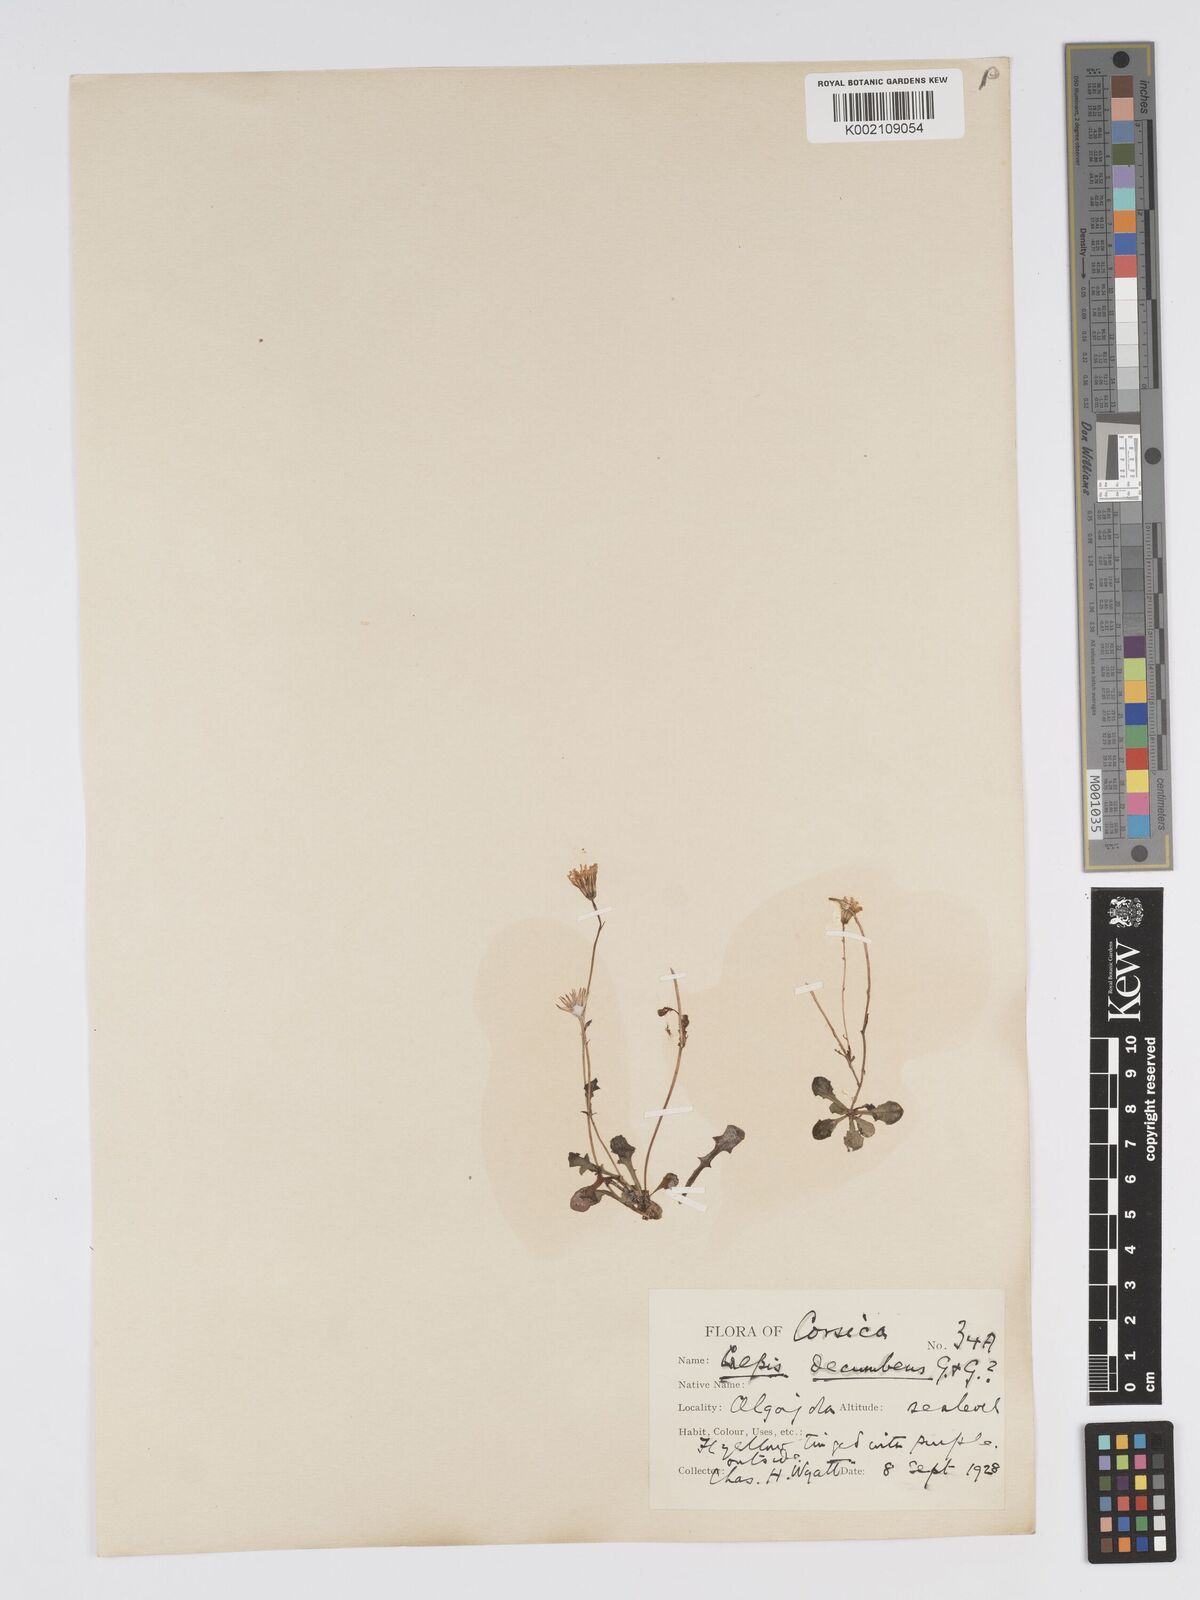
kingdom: Plantae
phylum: Tracheophyta
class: Magnoliopsida
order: Asterales
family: Asteraceae
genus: Crepis
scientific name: Crepis bellidifolia
